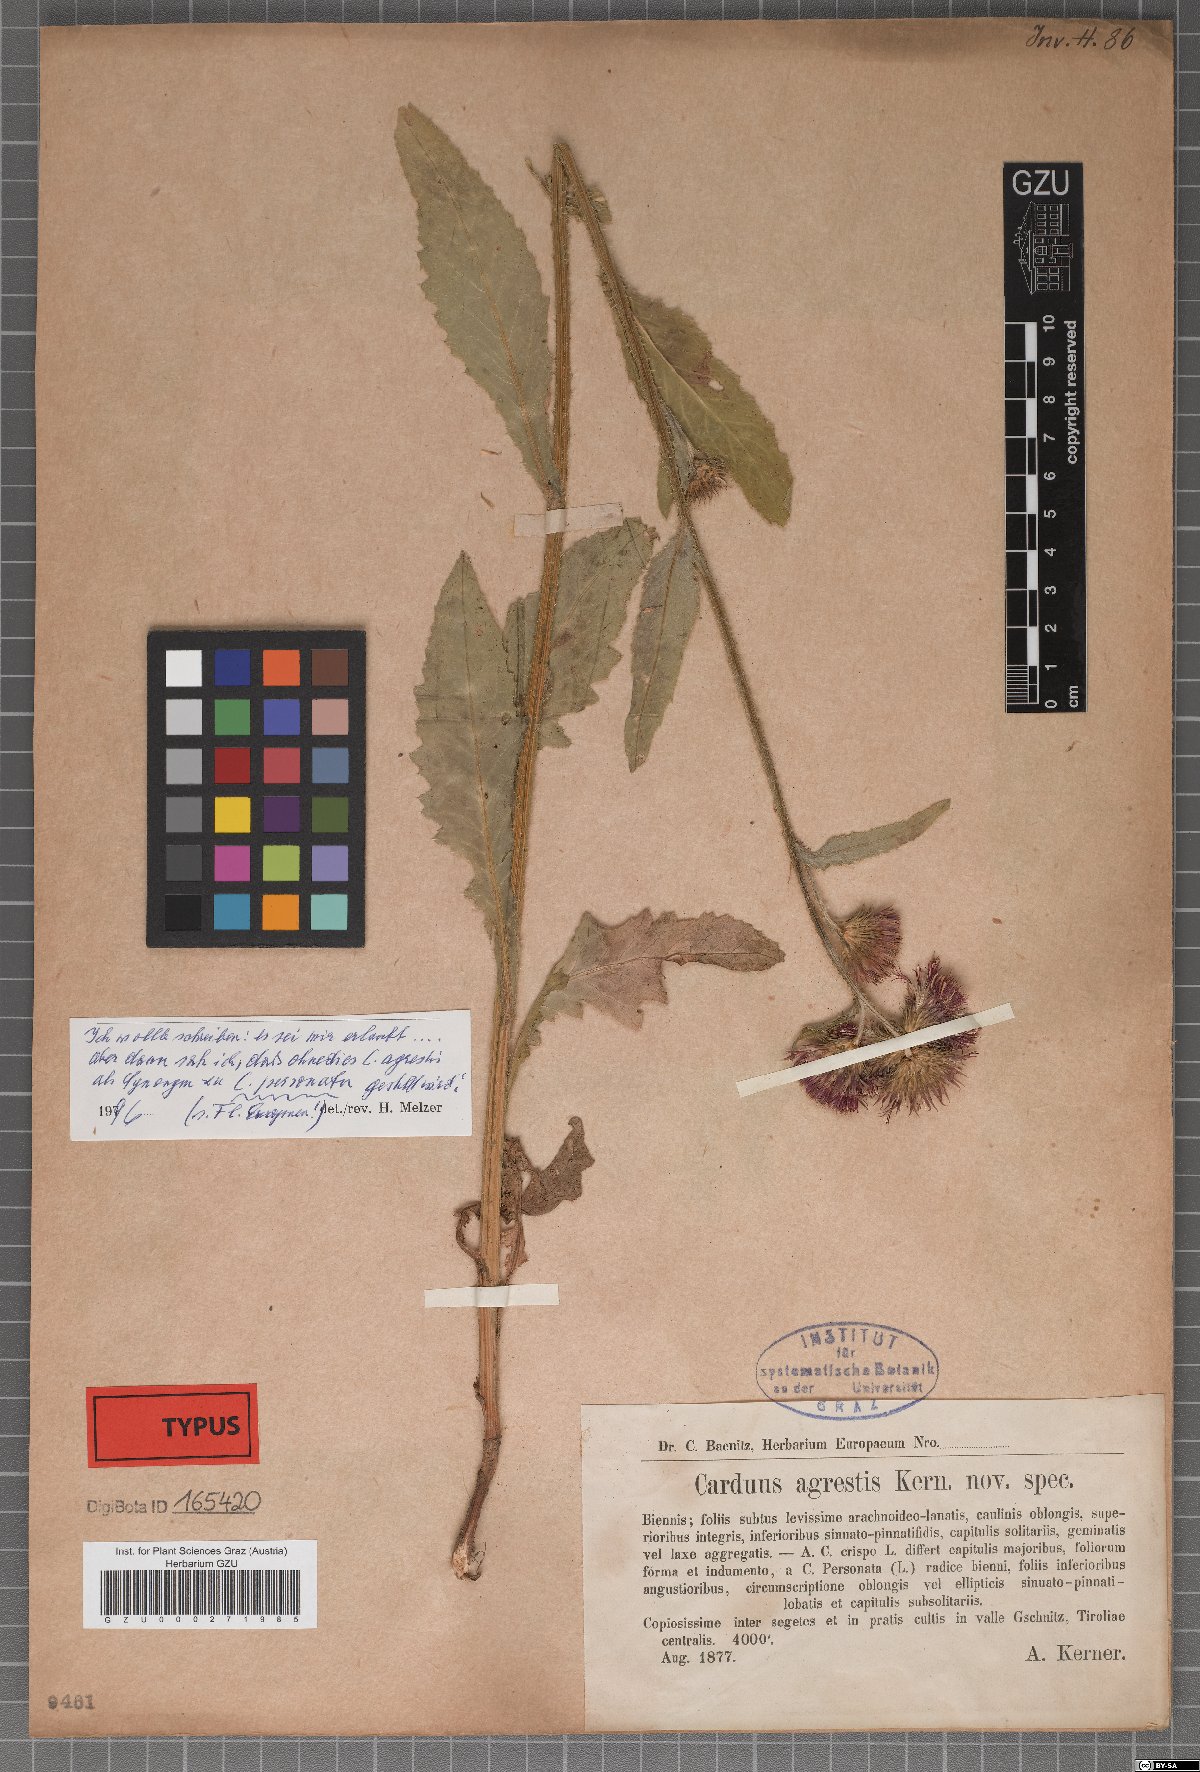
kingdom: Plantae
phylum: Tracheophyta
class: Magnoliopsida
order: Asterales
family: Asteraceae
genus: Carduus
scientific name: Carduus crispus
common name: Welted thistle
